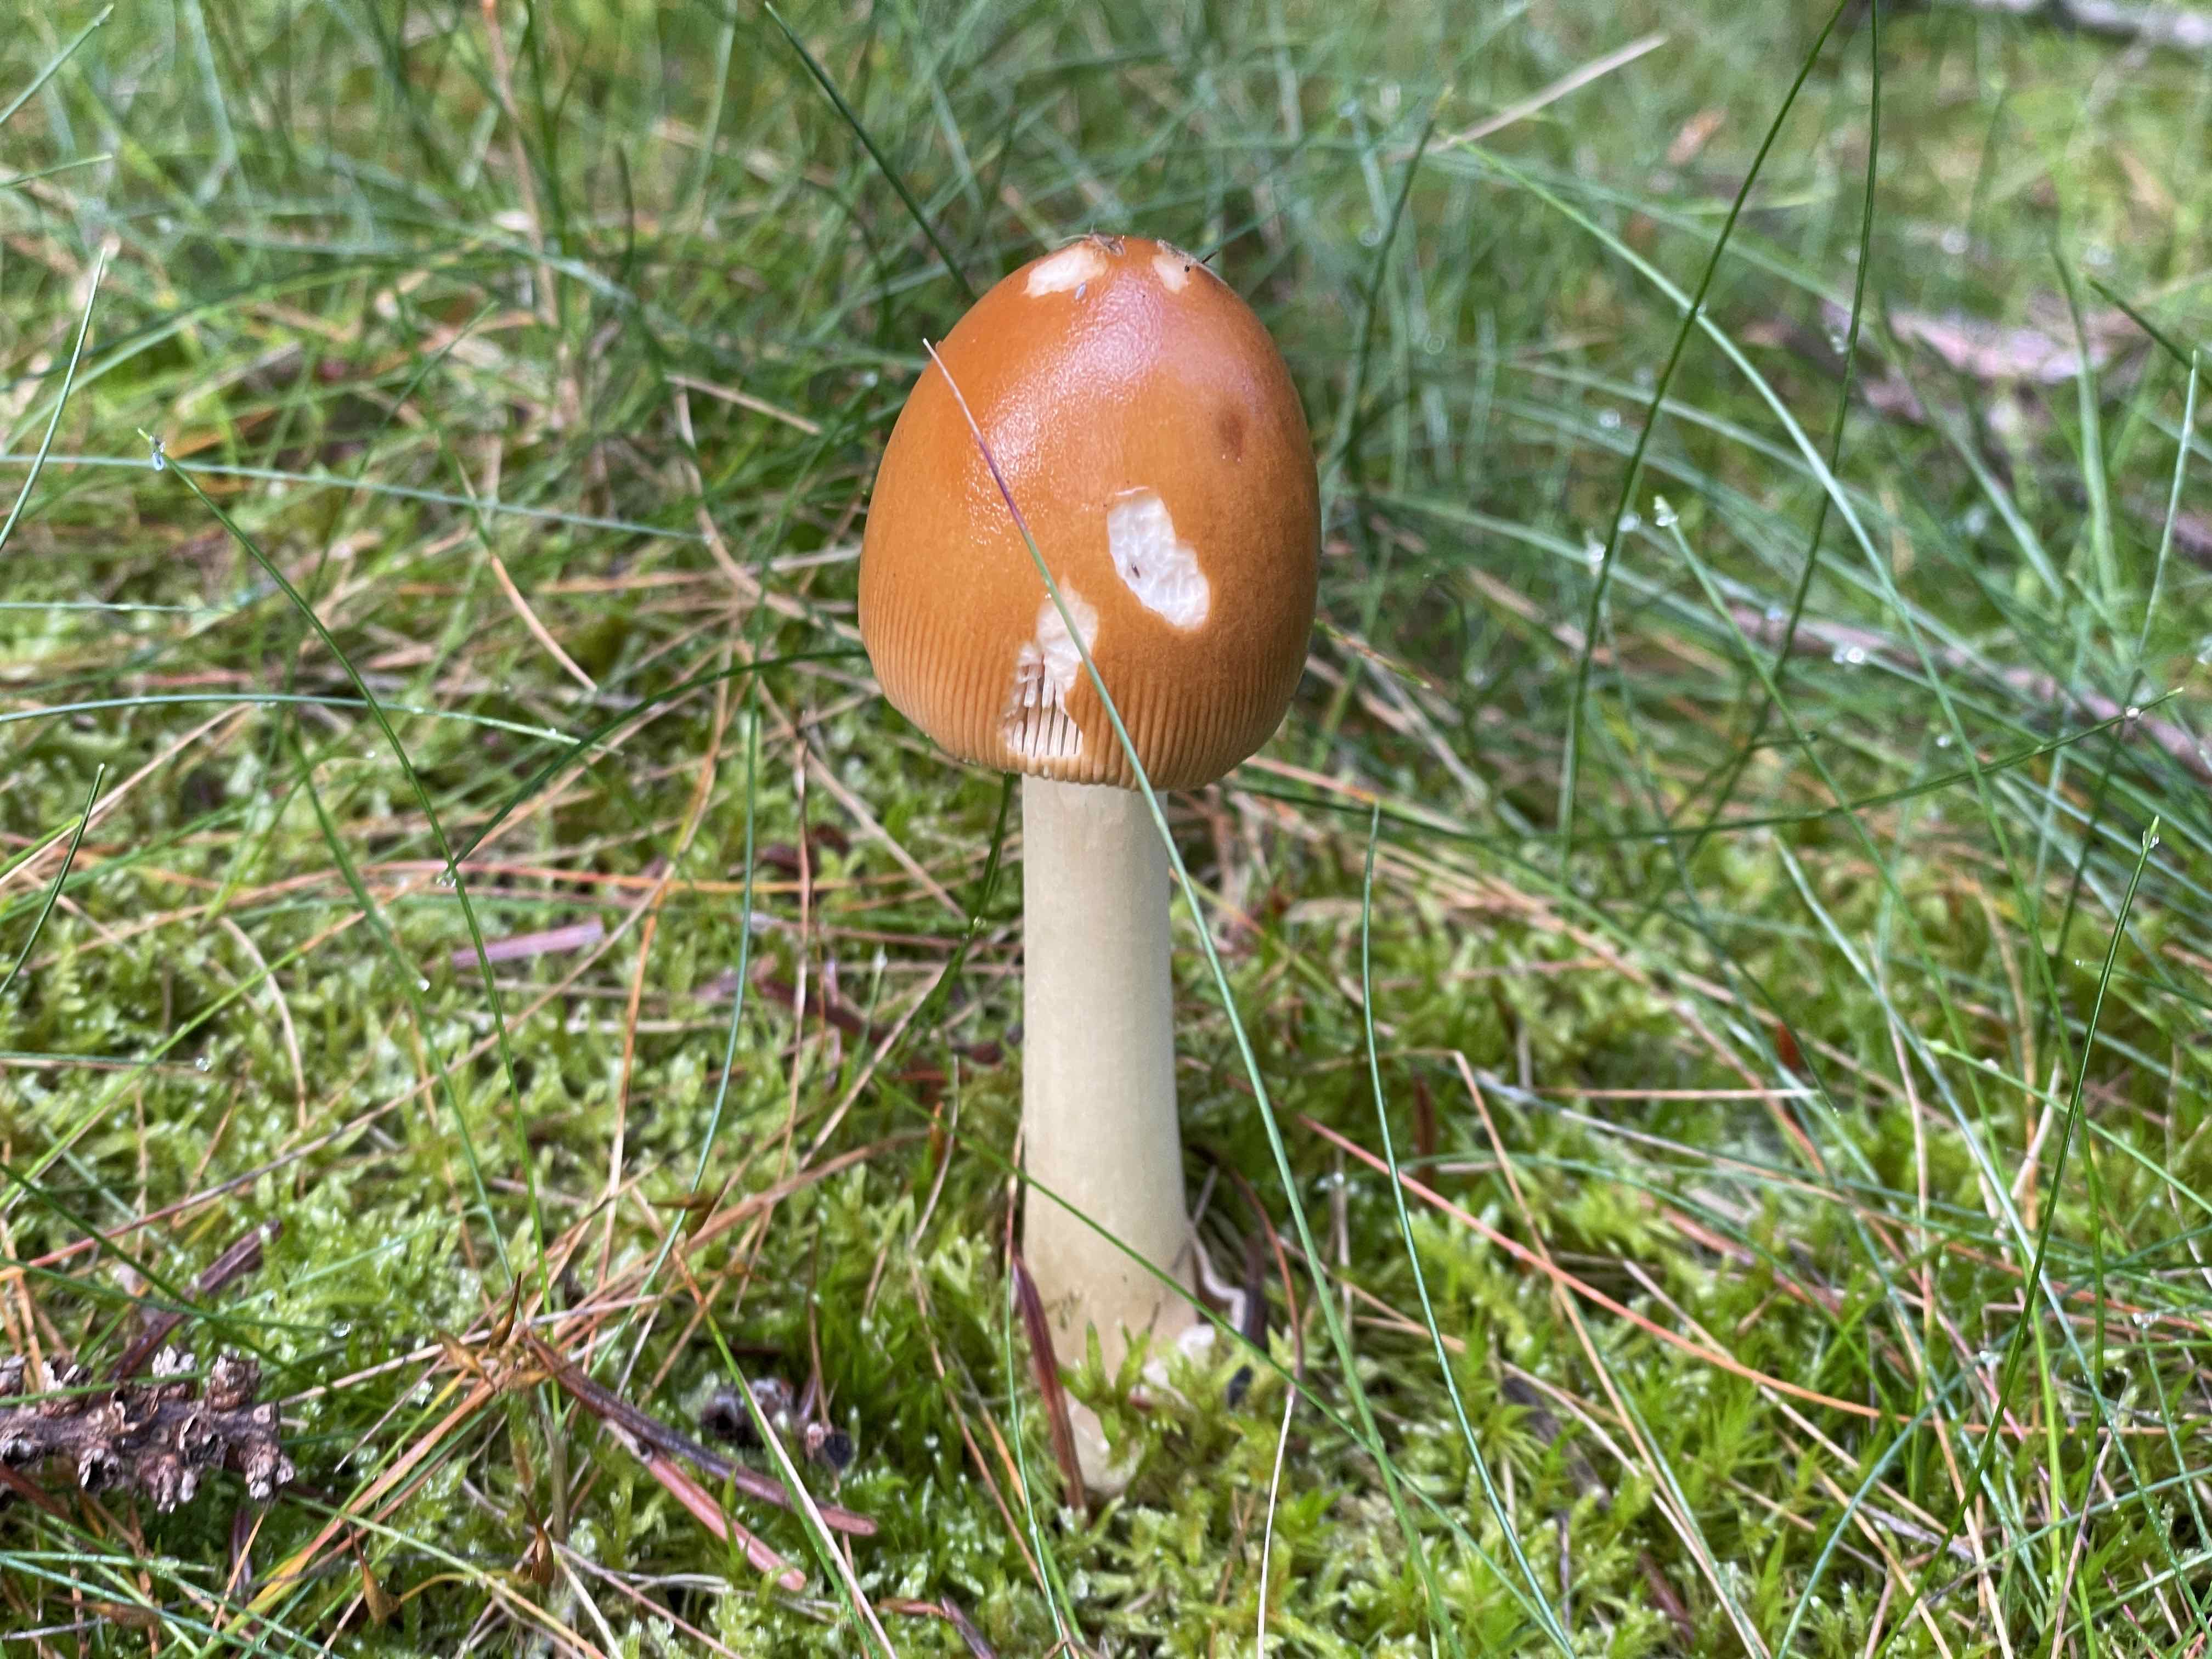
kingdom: Fungi
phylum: Basidiomycota
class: Agaricomycetes
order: Agaricales
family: Amanitaceae
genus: Amanita
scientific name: Amanita fulva
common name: brun kam-fluesvamp
